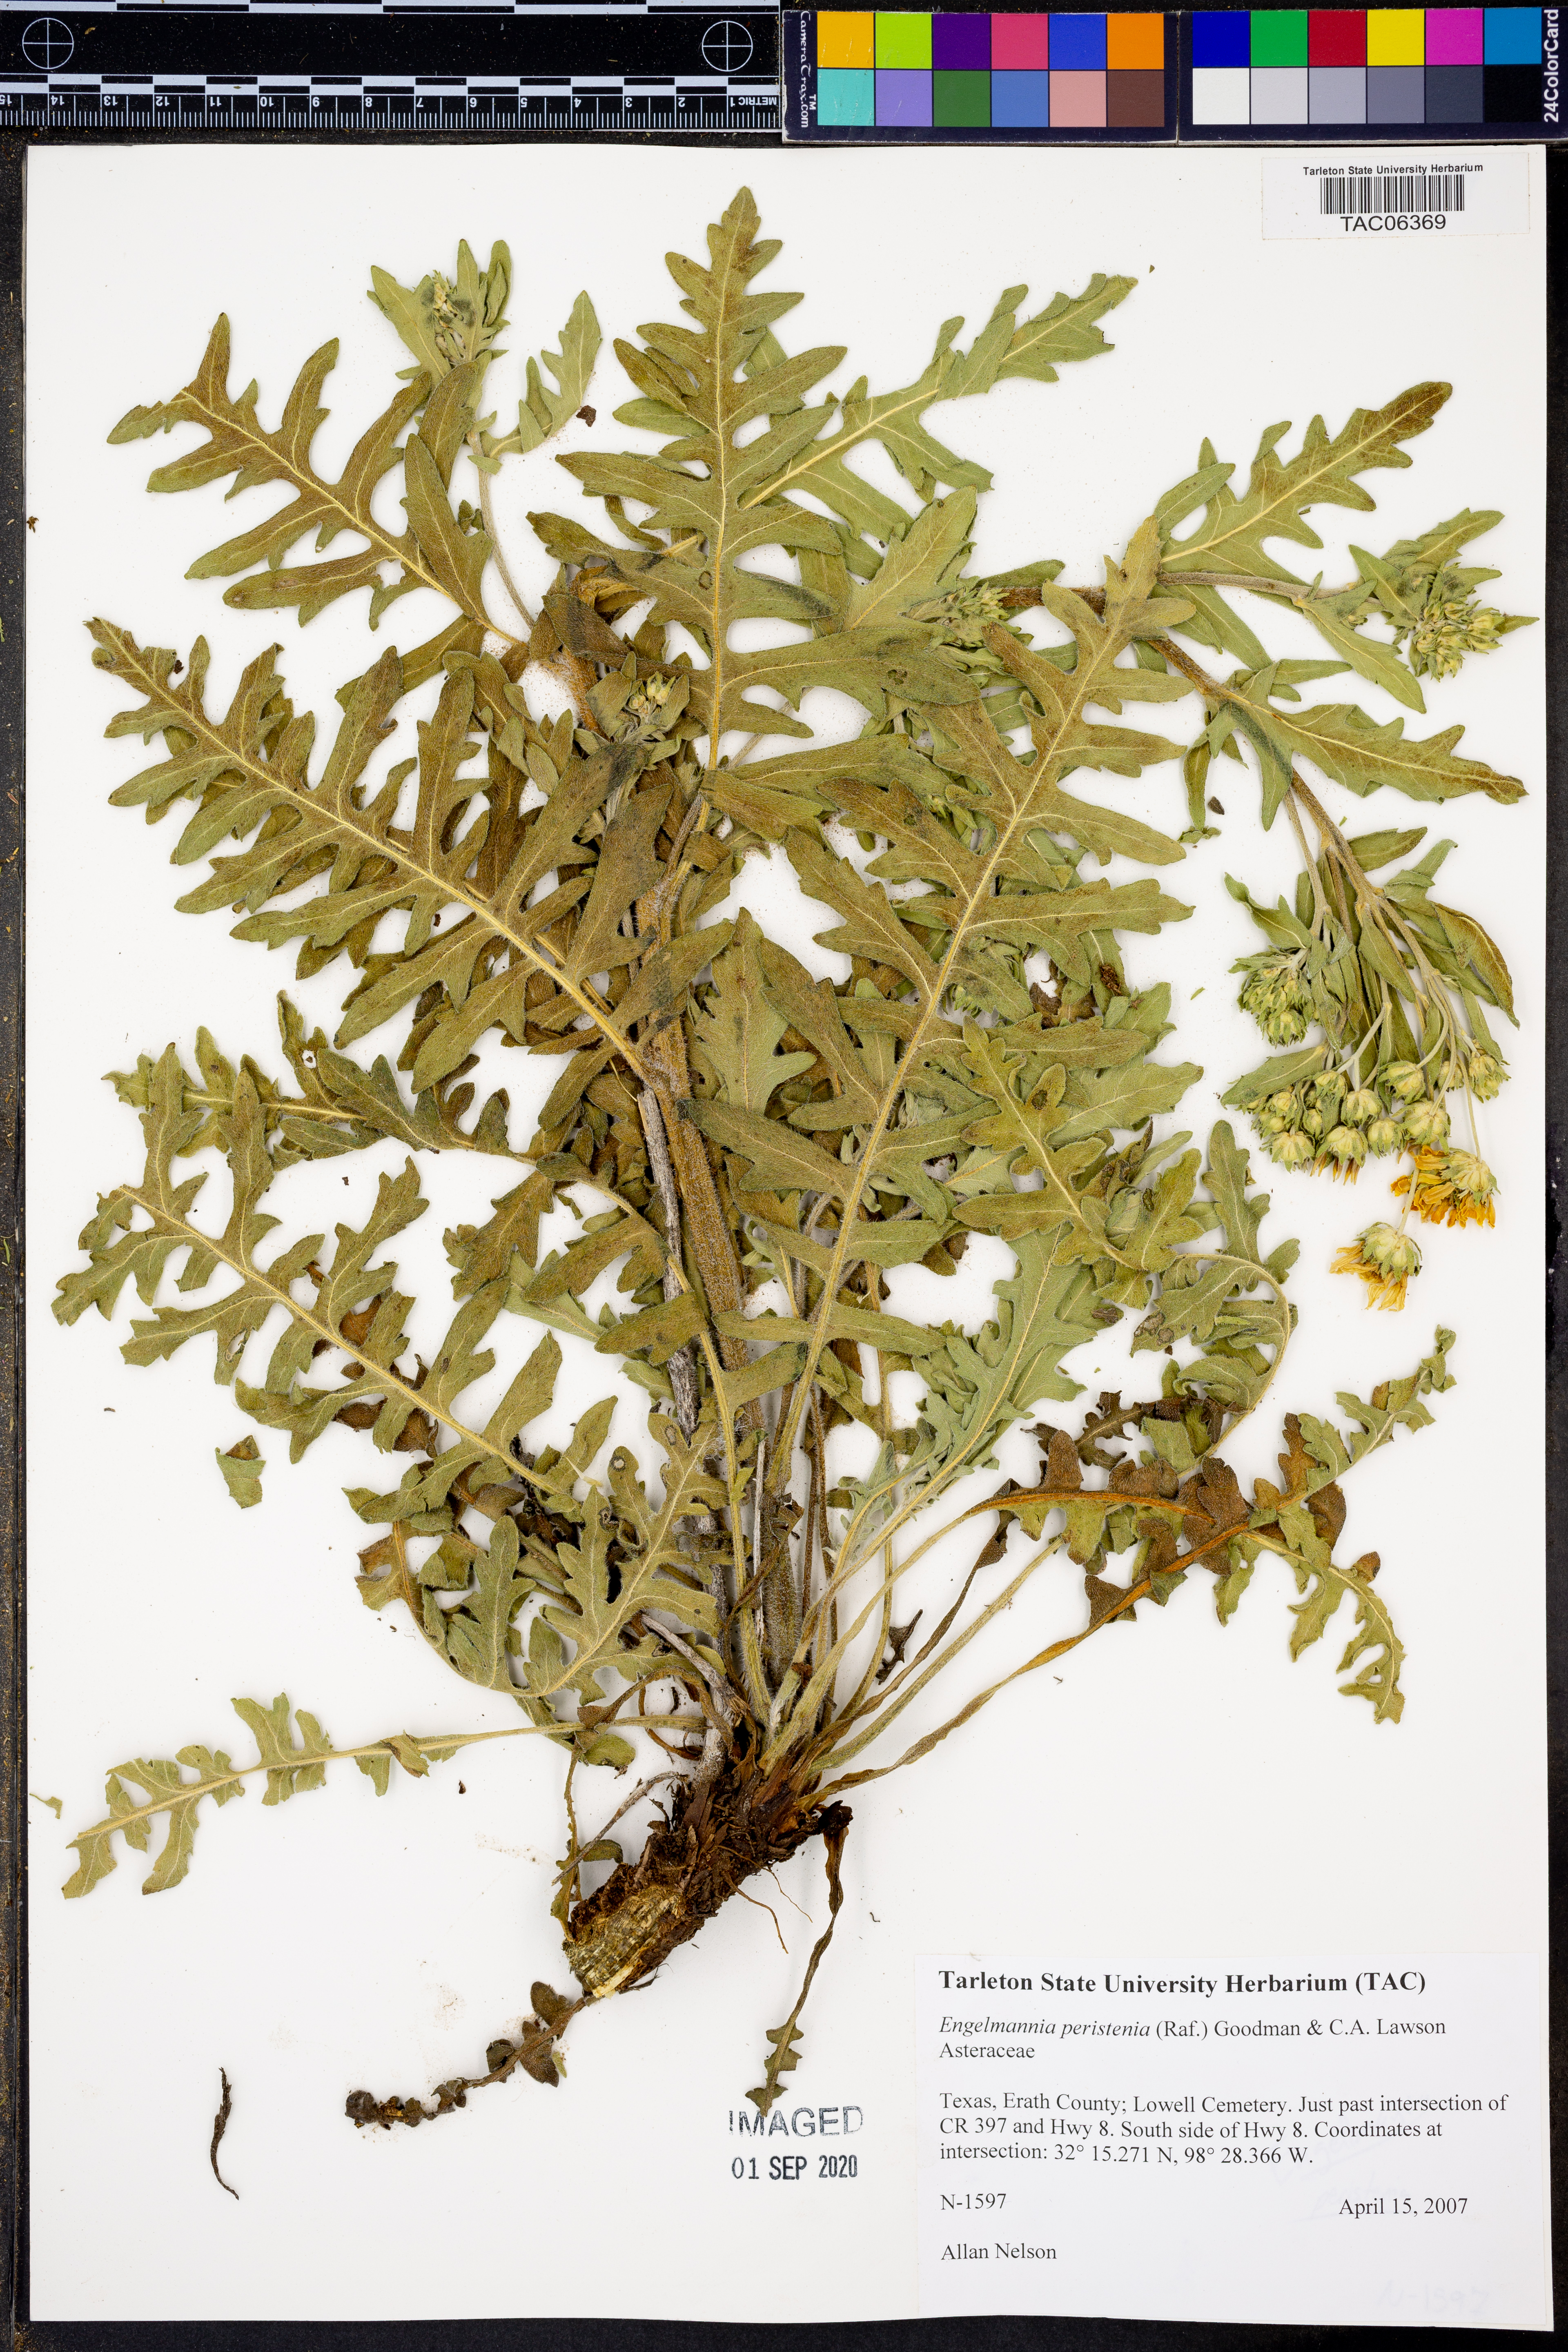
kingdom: Plantae
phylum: Tracheophyta
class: Magnoliopsida
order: Asterales
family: Asteraceae
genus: Engelmannia
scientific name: Engelmannia peristenia
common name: Engelmann's daisy
